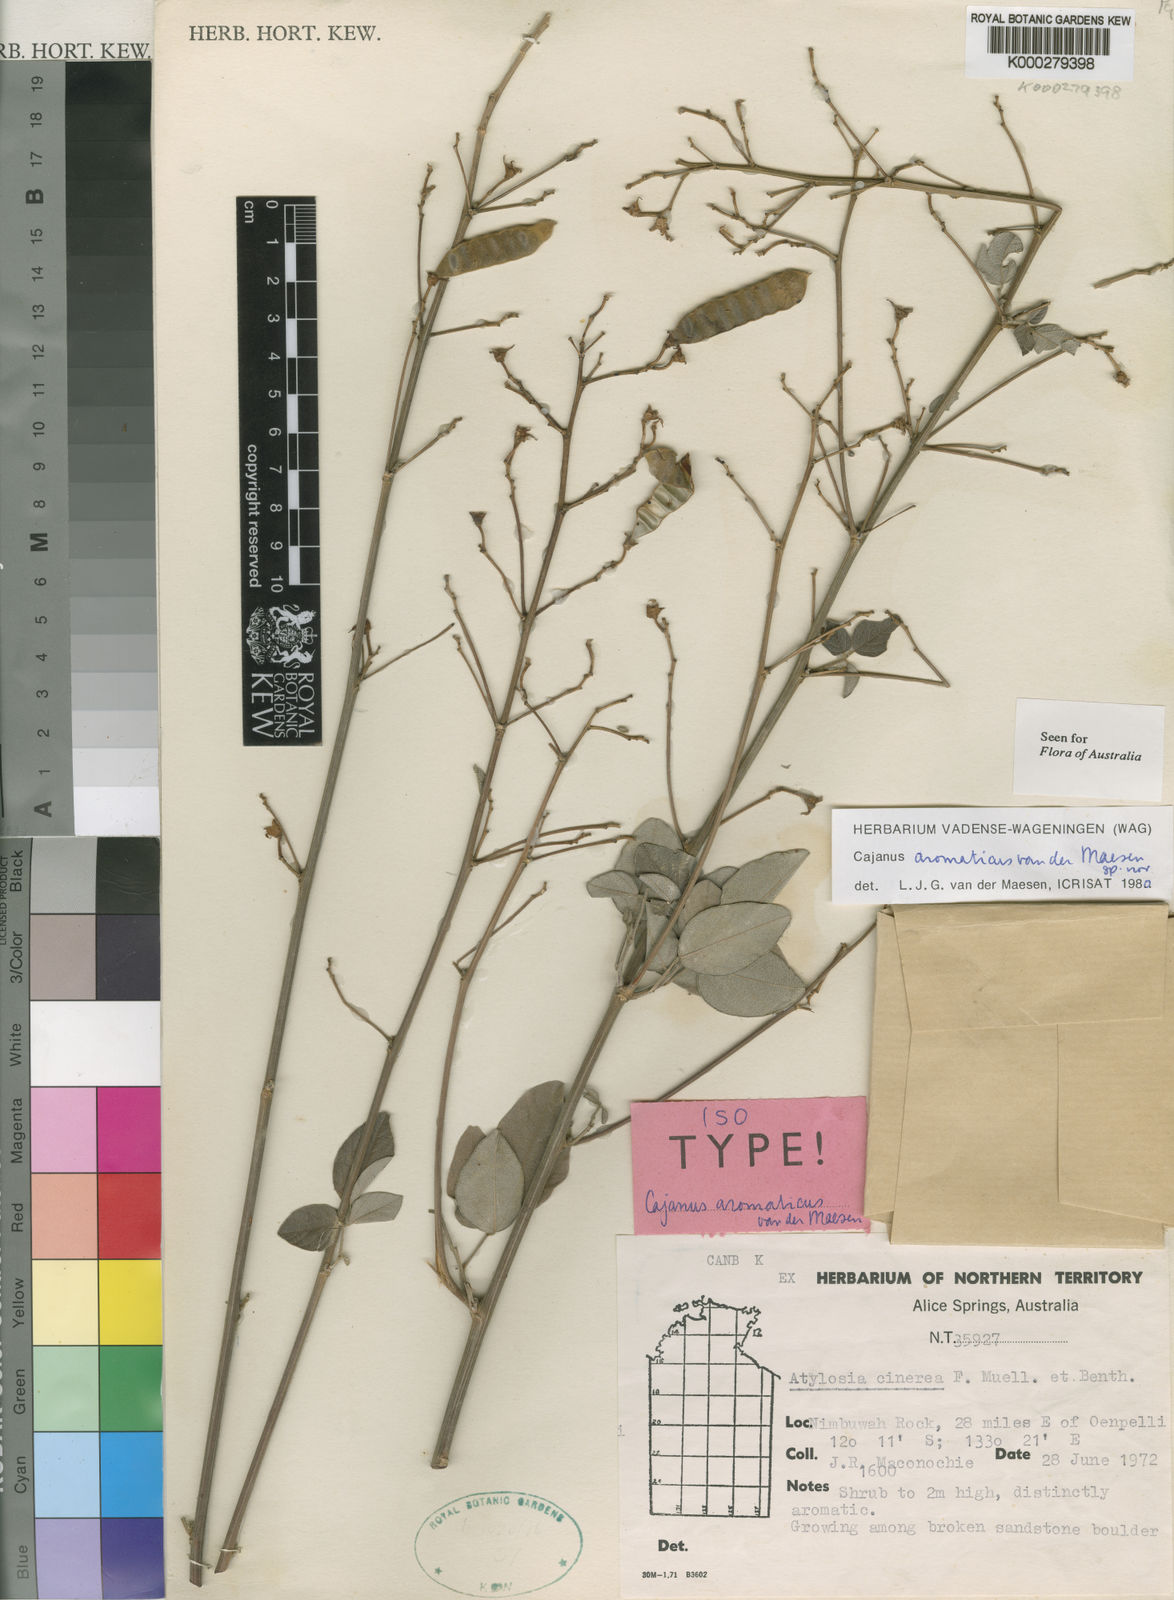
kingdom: Plantae
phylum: Tracheophyta
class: Magnoliopsida
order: Fabales
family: Fabaceae
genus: Cajanus
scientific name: Cajanus aromaticus
